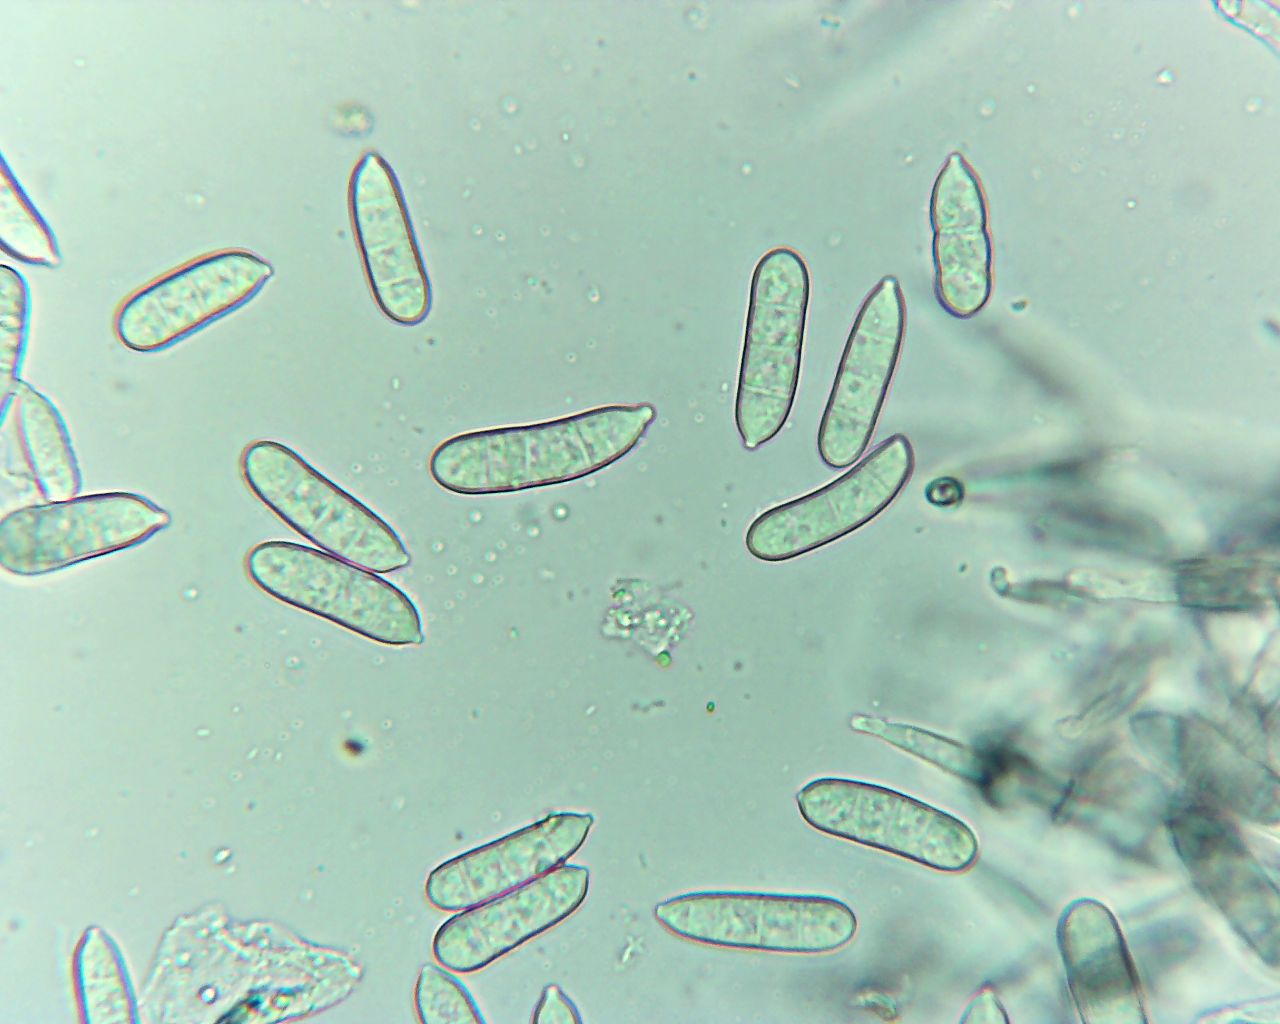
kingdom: Fungi
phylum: Ascomycota
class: Dothideomycetes
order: Capnodiales
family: Cladosporiaceae
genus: Cladosporium
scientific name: Cladosporium
